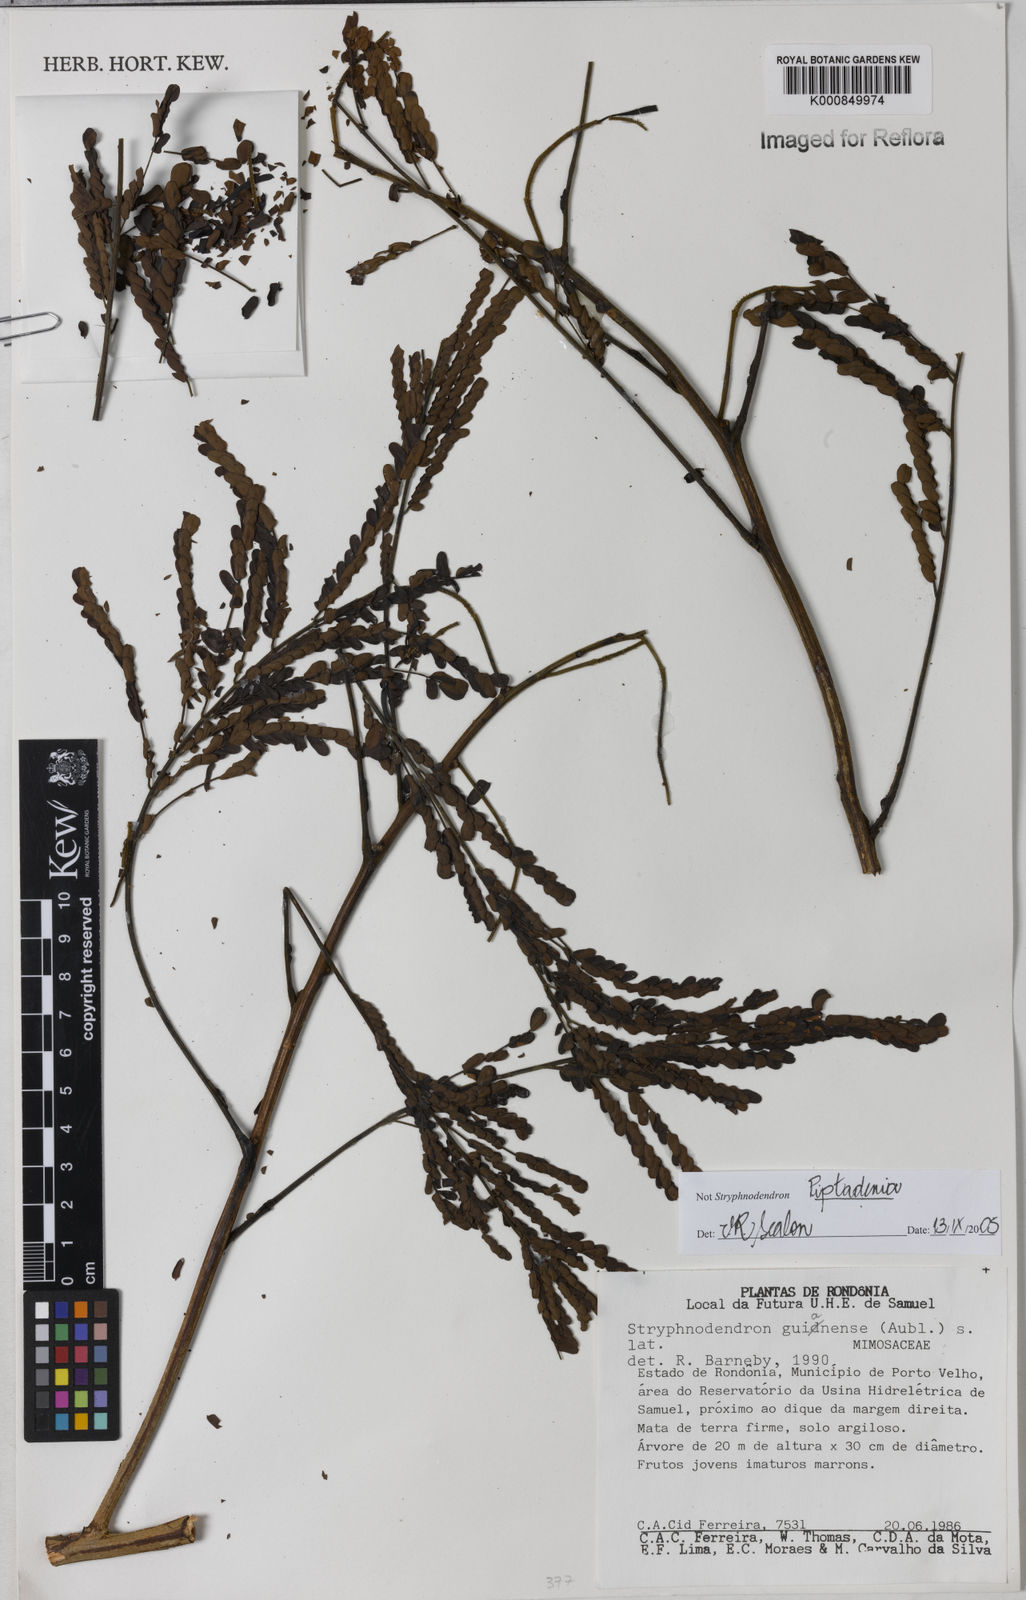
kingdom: Plantae
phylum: Tracheophyta
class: Magnoliopsida
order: Fabales
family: Fabaceae
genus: Piptadenia
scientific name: Piptadenia
